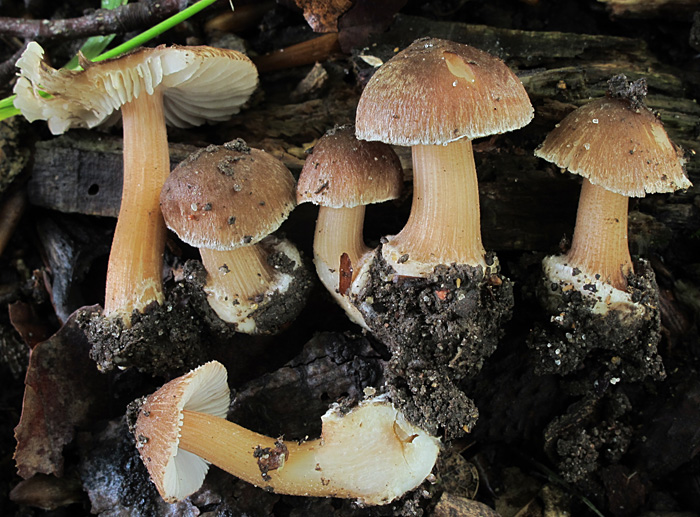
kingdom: Fungi
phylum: Basidiomycota
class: Agaricomycetes
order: Agaricales
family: Inocybaceae
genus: Inocybe
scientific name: Inocybe asterospora
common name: stjernesporet trævlhat
